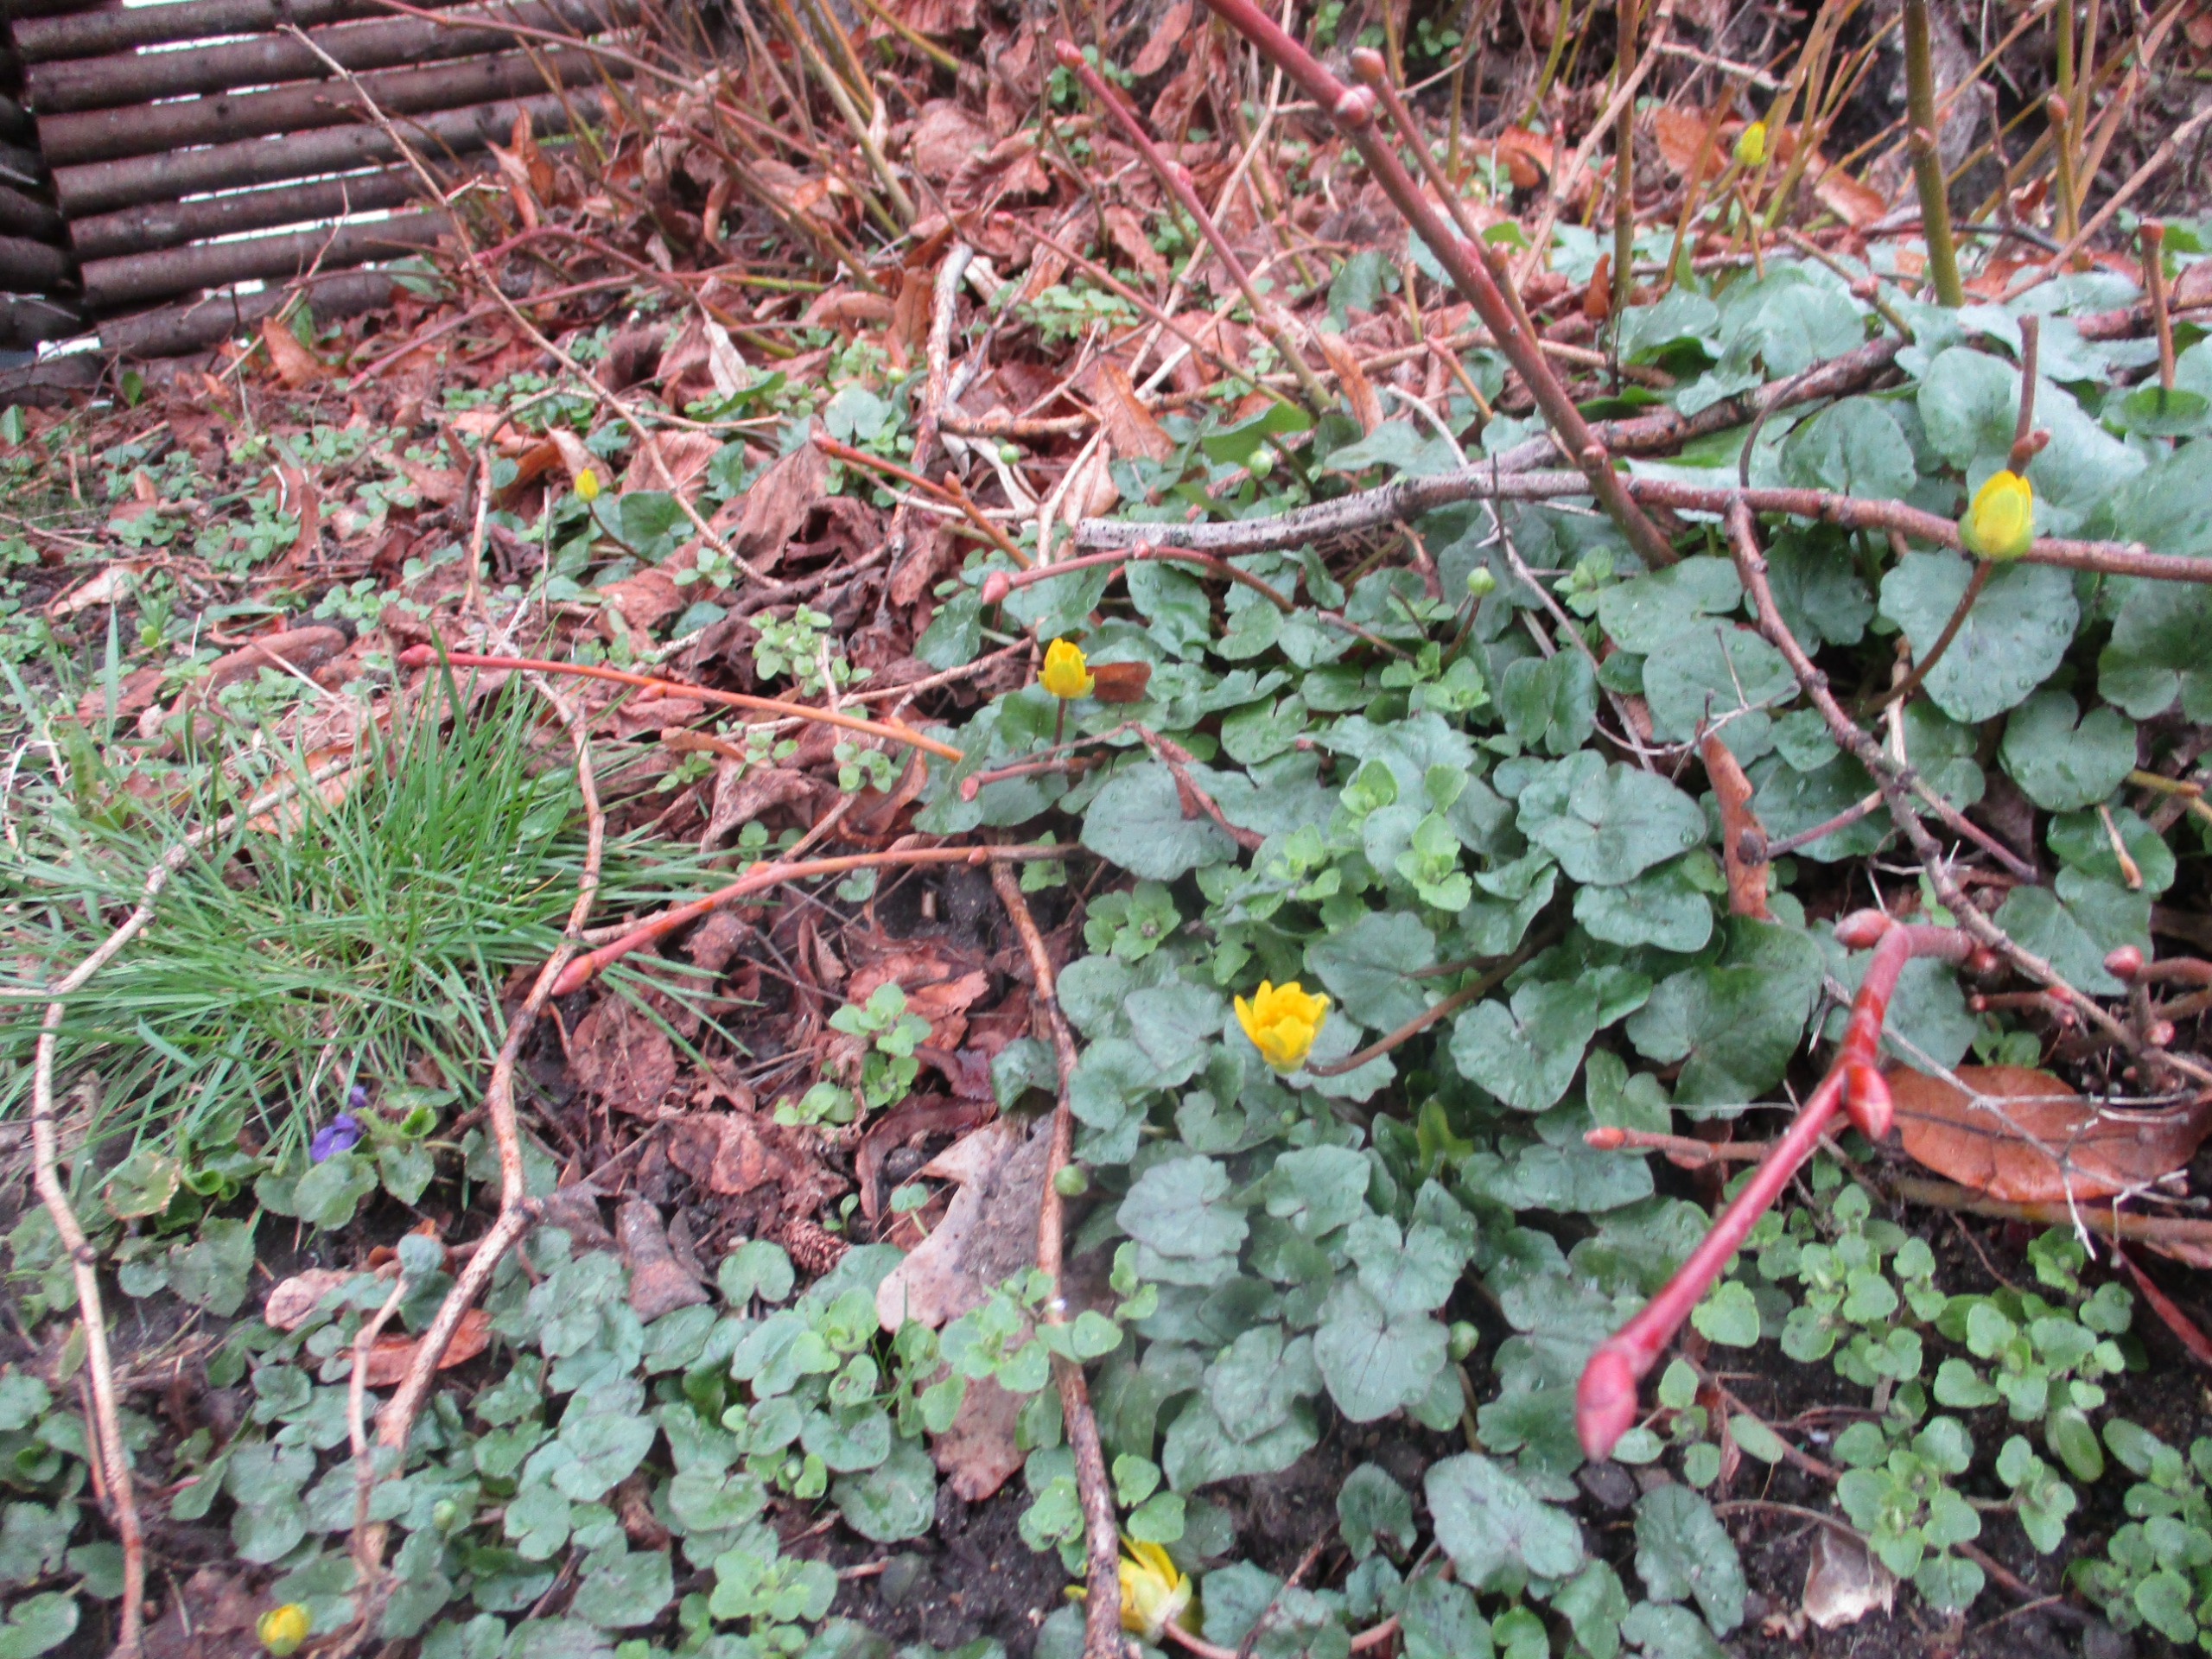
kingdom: Plantae
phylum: Tracheophyta
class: Magnoliopsida
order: Ranunculales
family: Ranunculaceae
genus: Ficaria
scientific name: Ficaria verna
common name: Vorterod
